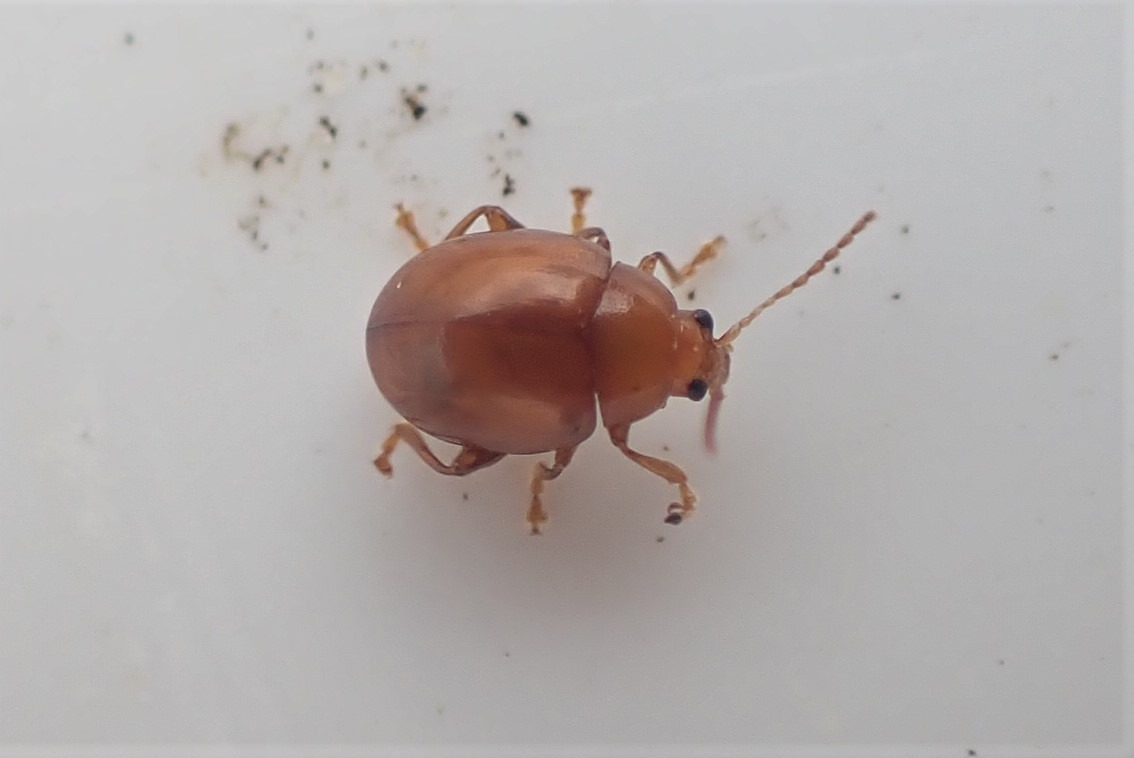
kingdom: Animalia
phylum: Arthropoda
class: Insecta
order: Coleoptera
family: Chrysomelidae
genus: Pistosia
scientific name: Pistosia testacea
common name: Tidselkuglebille
